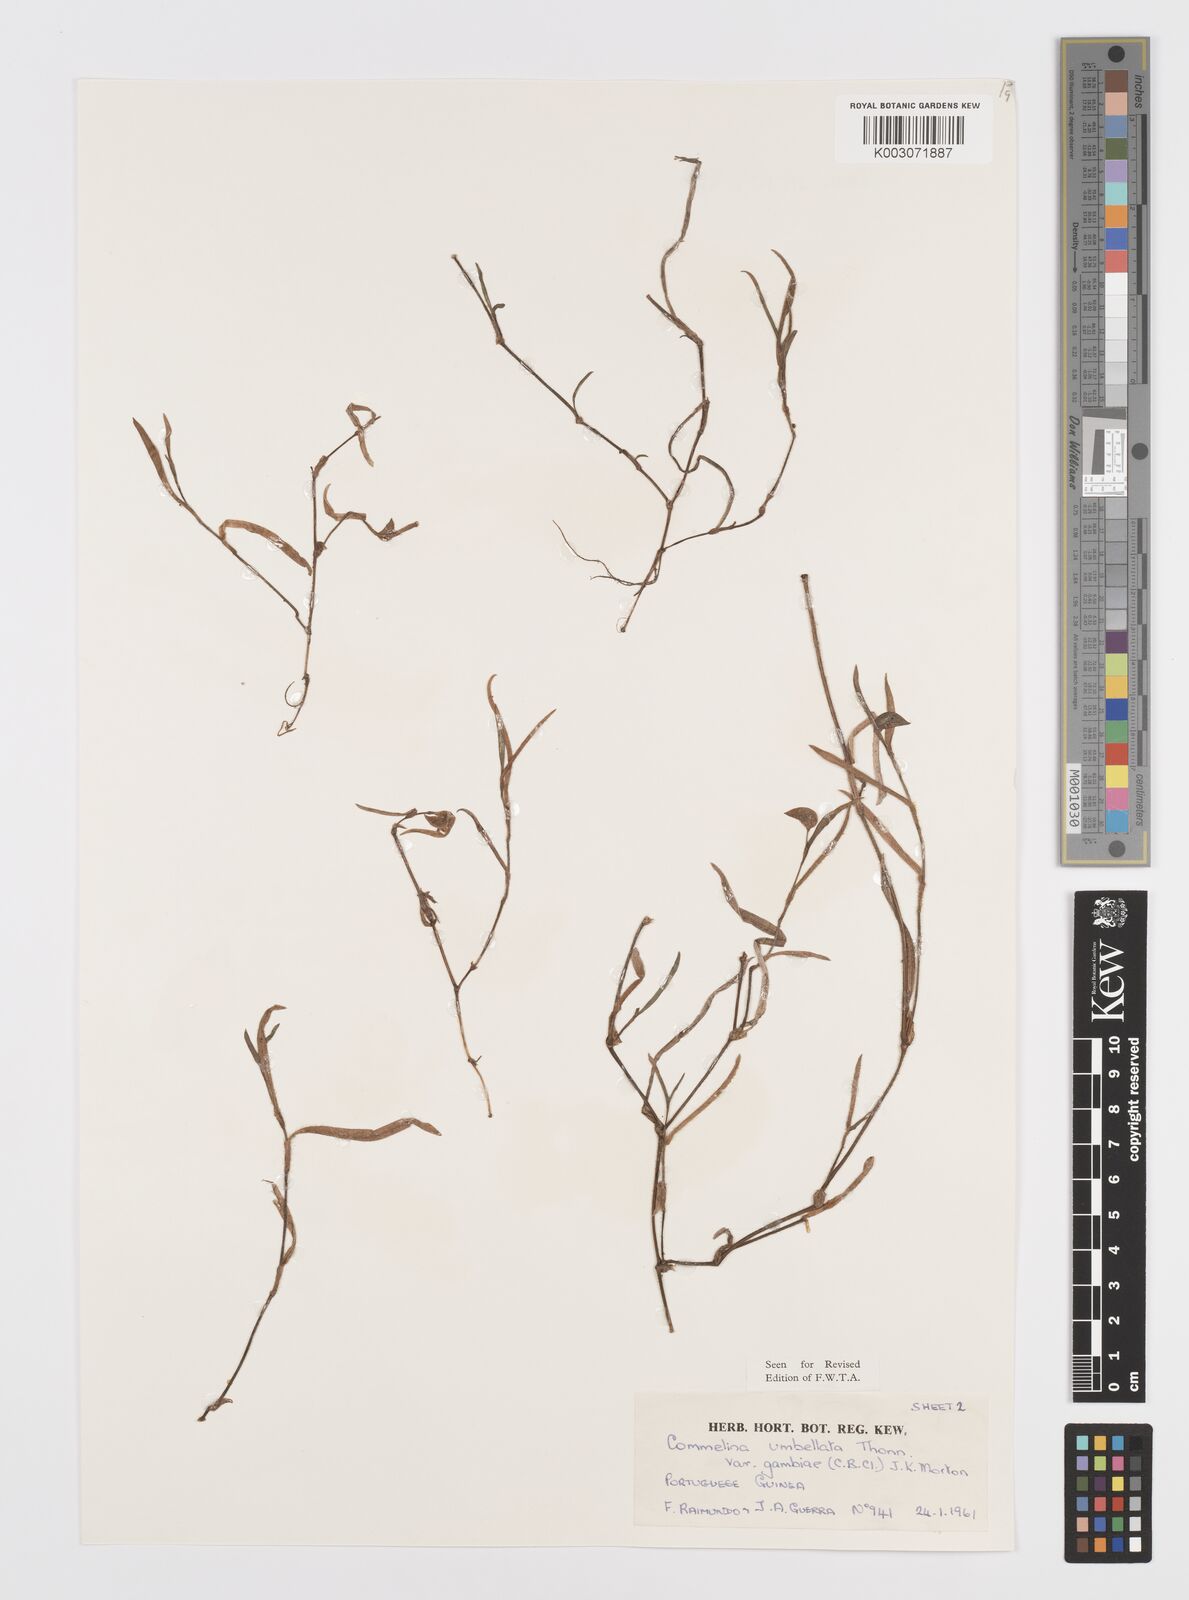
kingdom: Plantae
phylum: Tracheophyta
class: Liliopsida
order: Commelinales
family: Commelinaceae
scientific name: Commelinaceae
